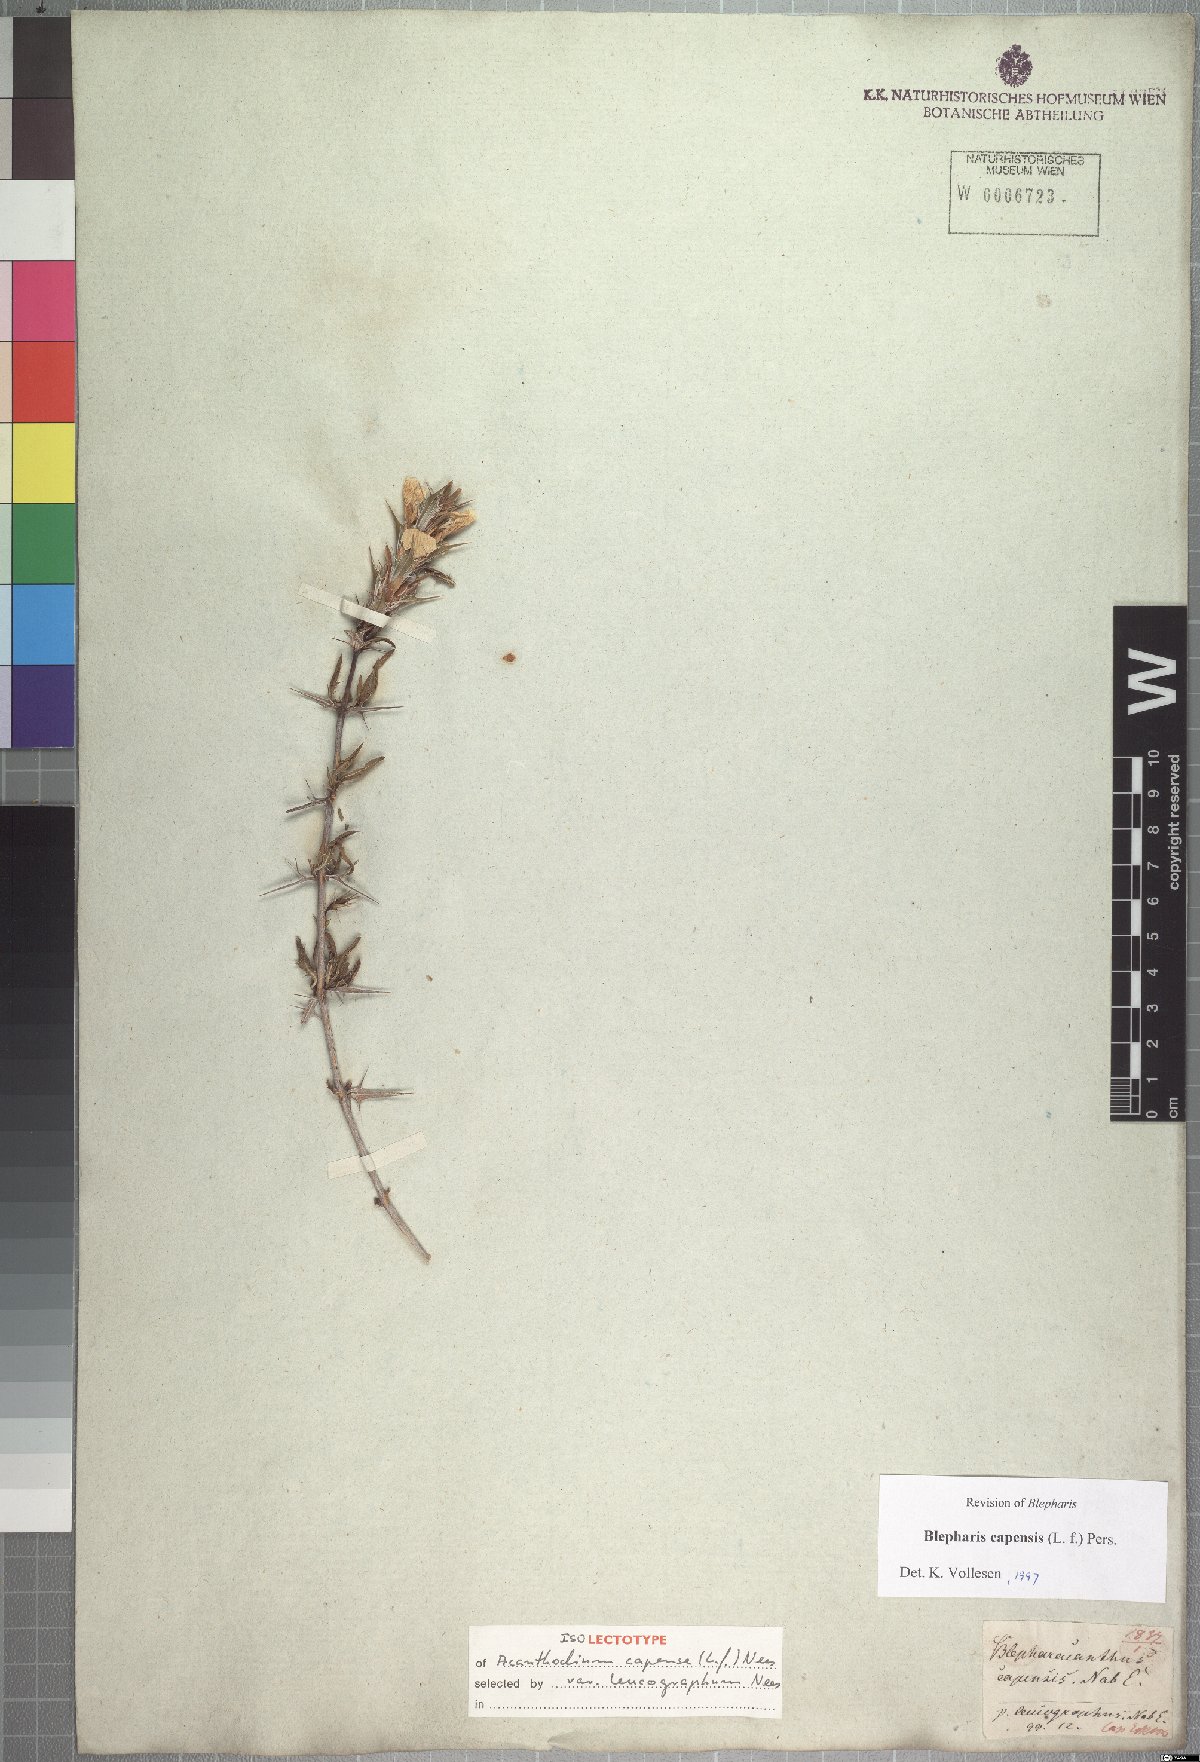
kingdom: Plantae
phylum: Tracheophyta
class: Magnoliopsida
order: Lamiales
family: Acanthaceae
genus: Blepharis
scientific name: Blepharis capensis
